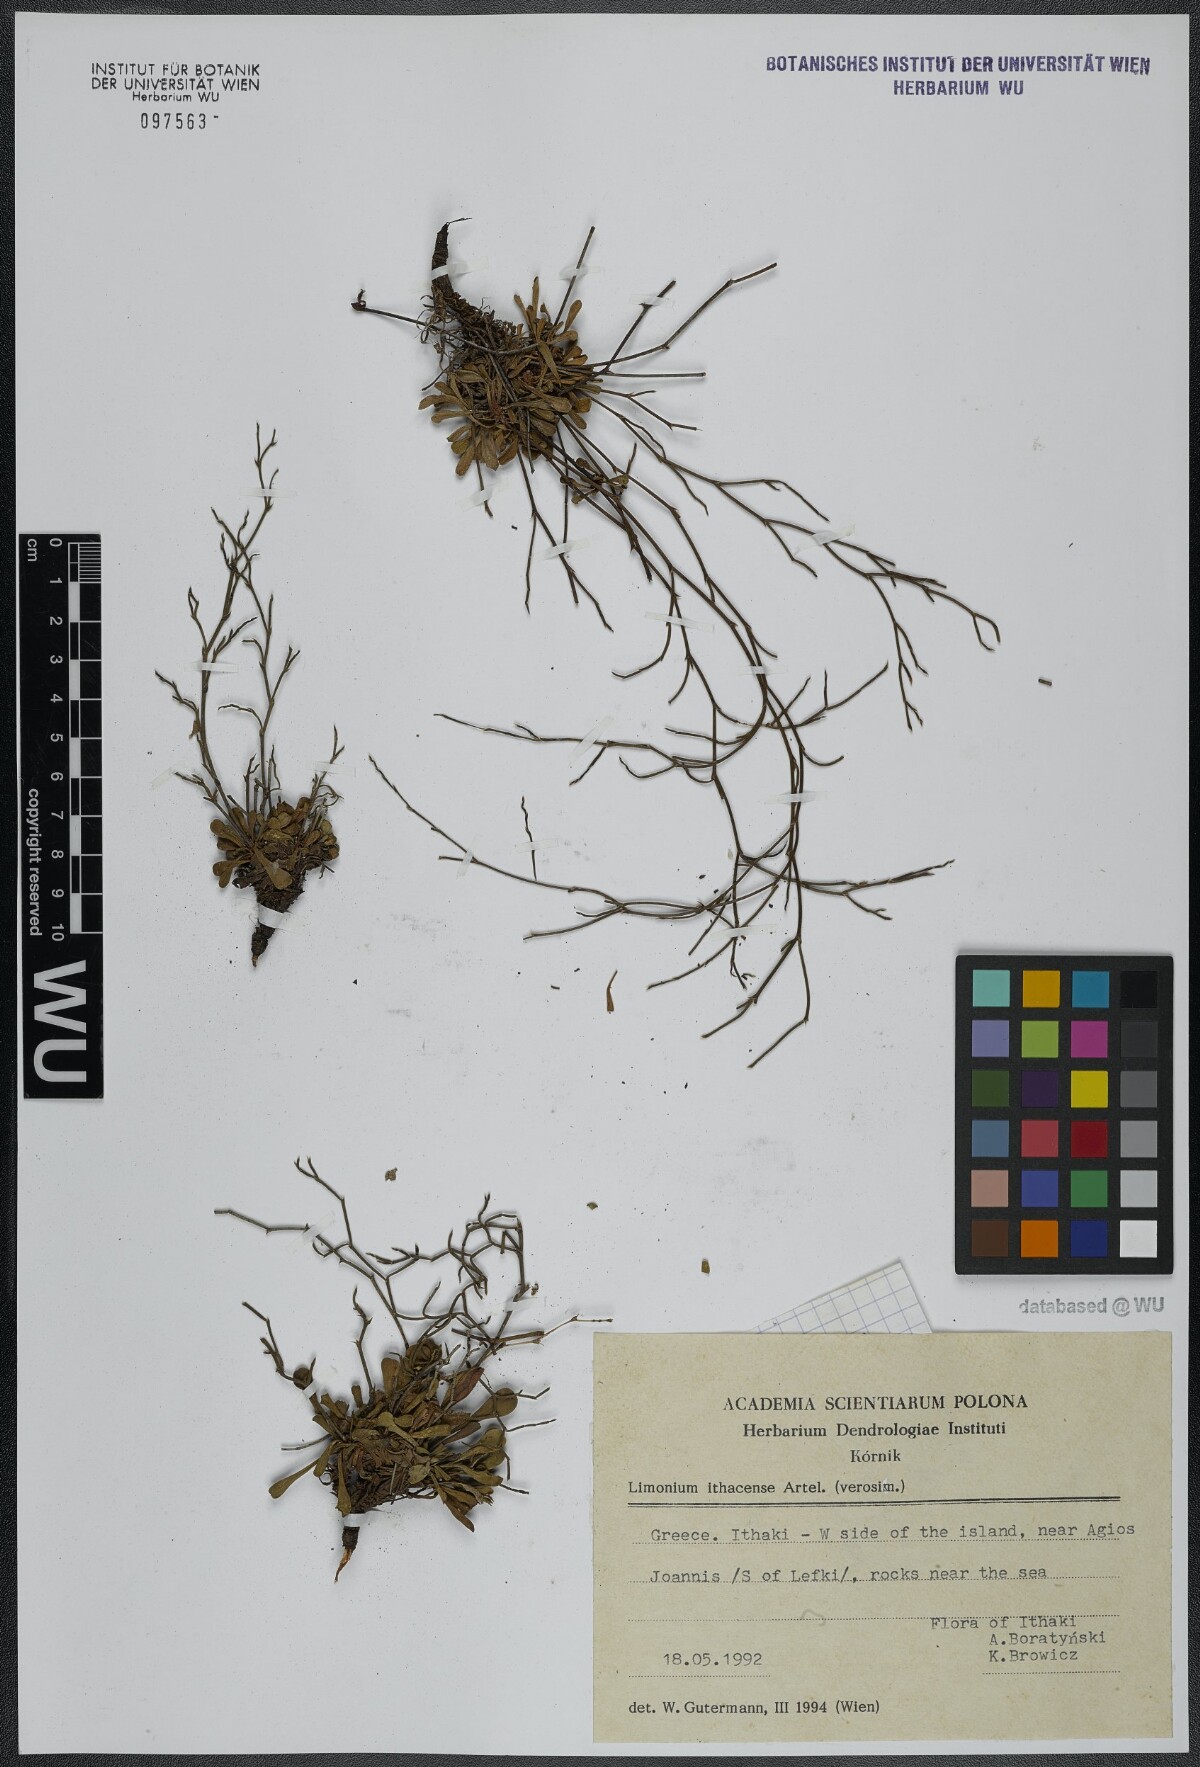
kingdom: Plantae
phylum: Tracheophyta
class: Magnoliopsida
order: Caryophyllales
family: Plumbaginaceae
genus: Limonium
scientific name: Limonium ithacense
